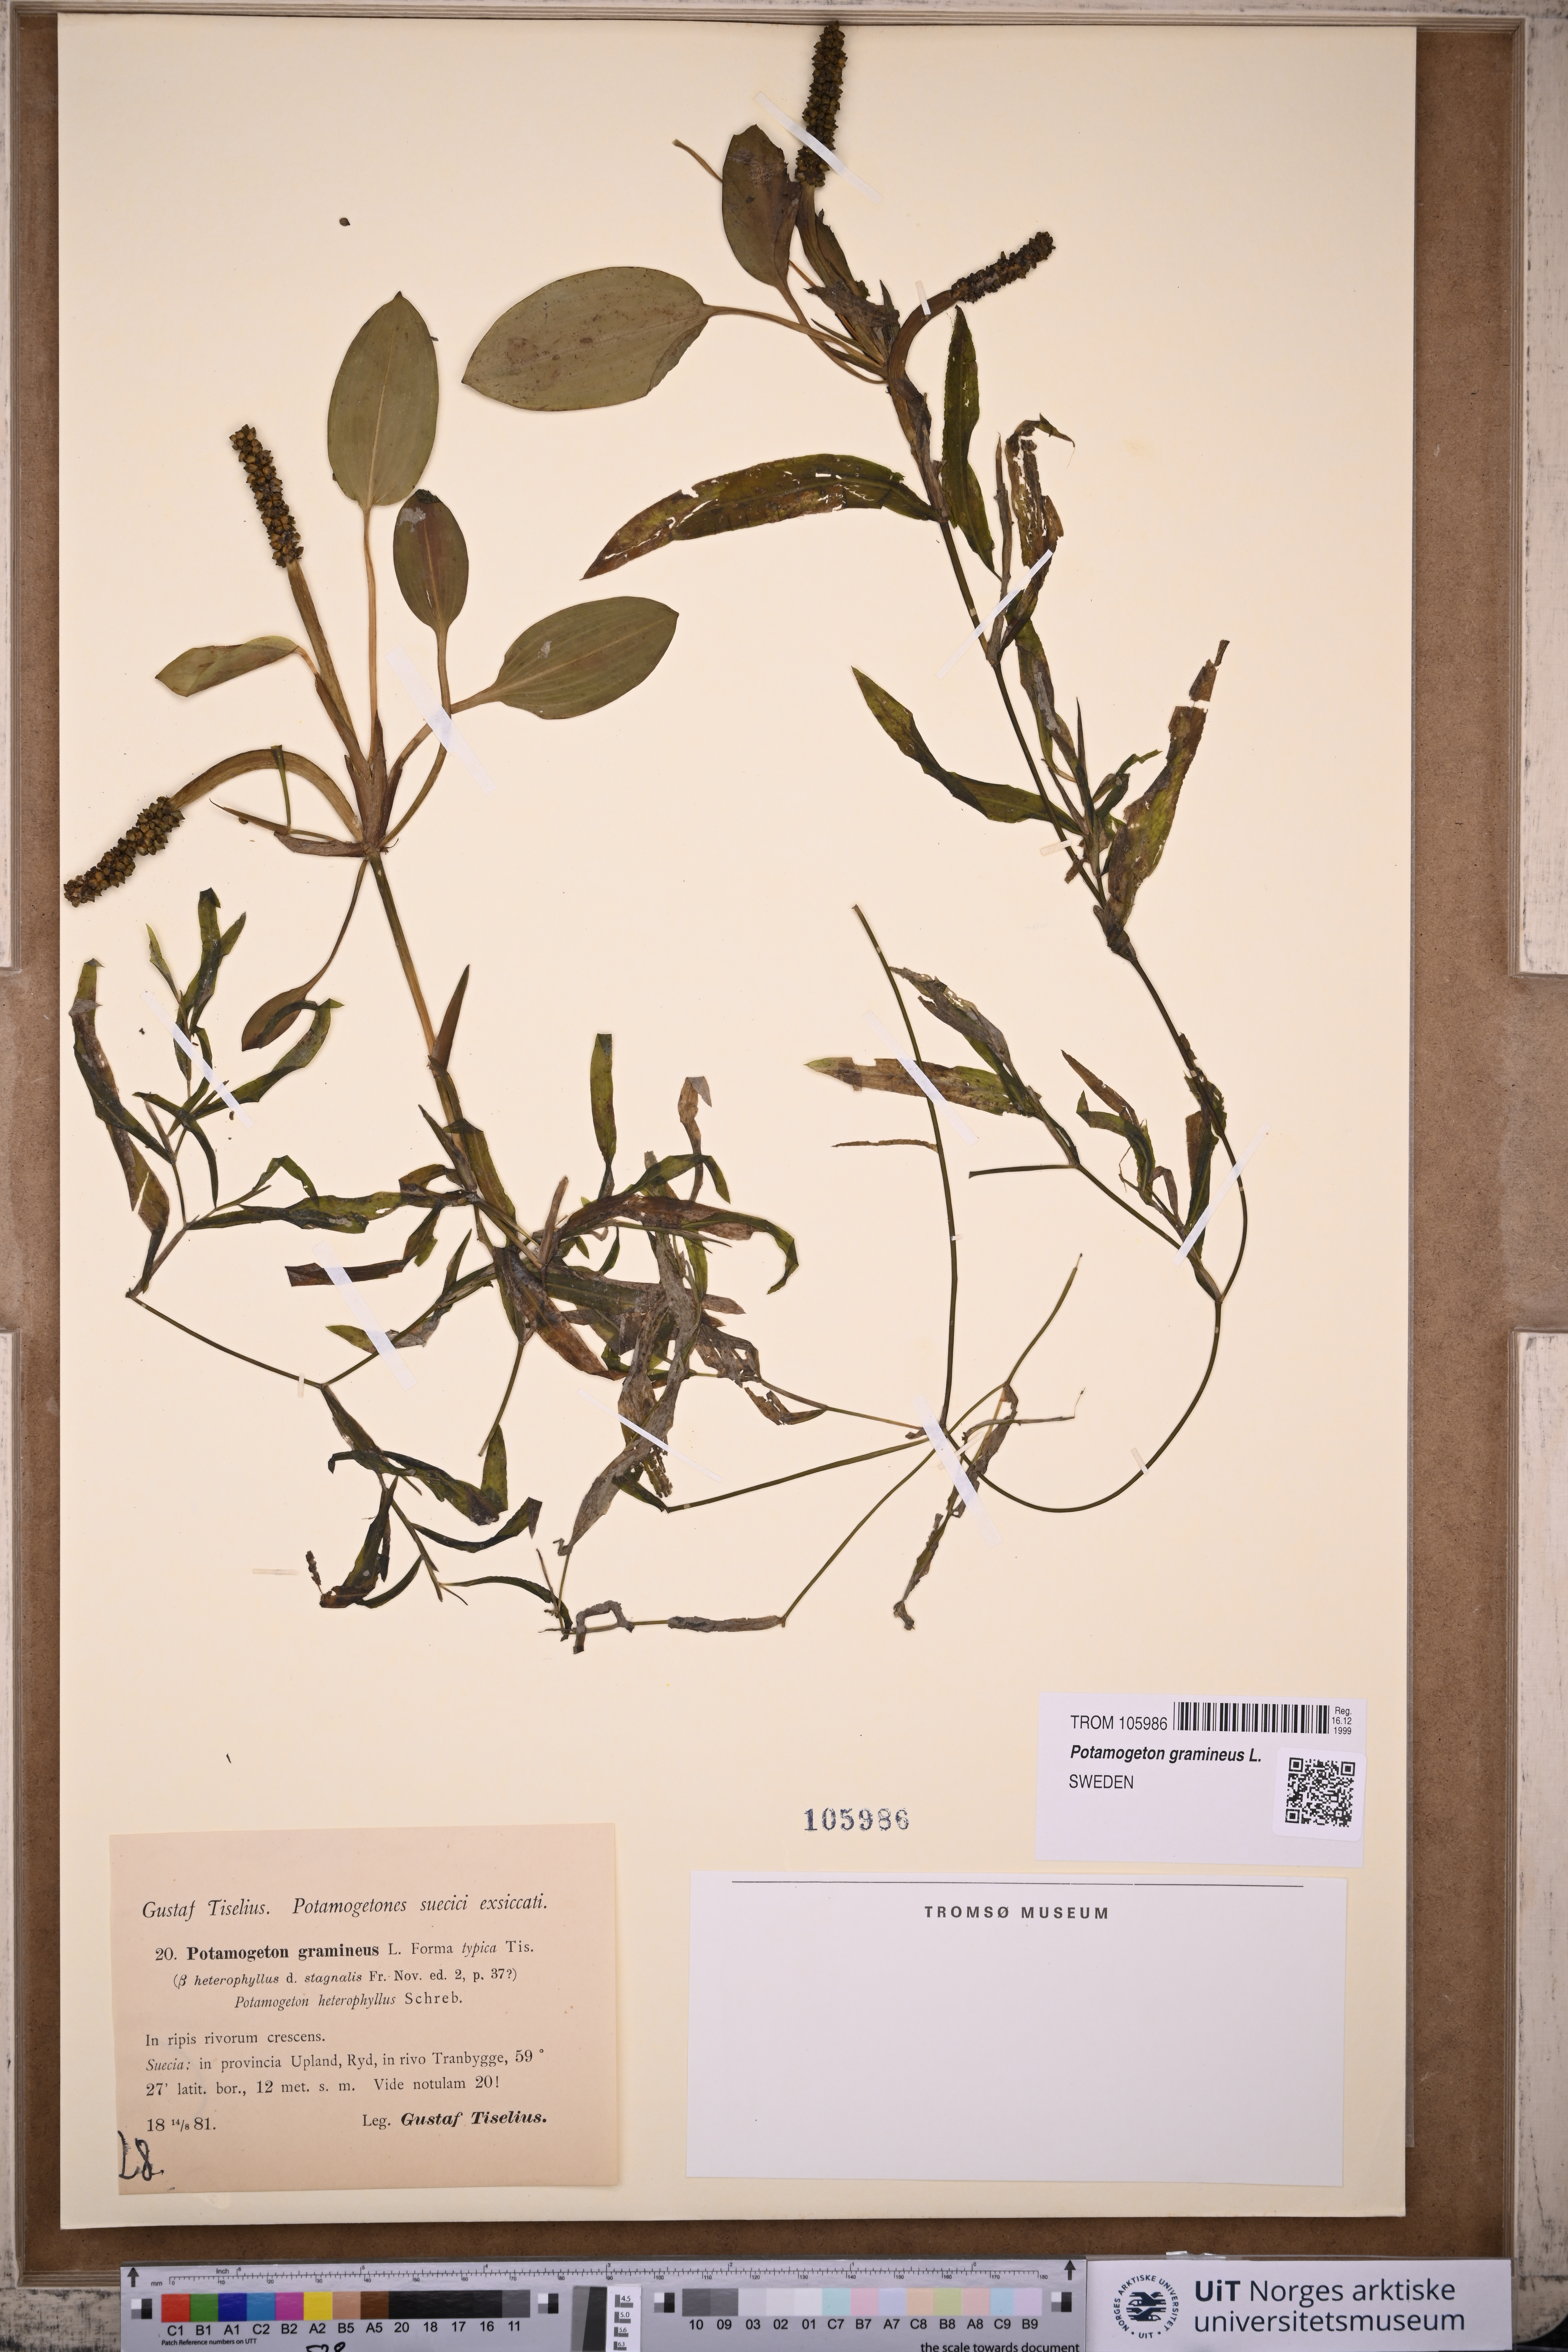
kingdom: Plantae
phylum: Tracheophyta
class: Liliopsida
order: Alismatales
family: Potamogetonaceae
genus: Potamogeton
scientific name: Potamogeton gramineus
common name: Various-leaved pondweed
